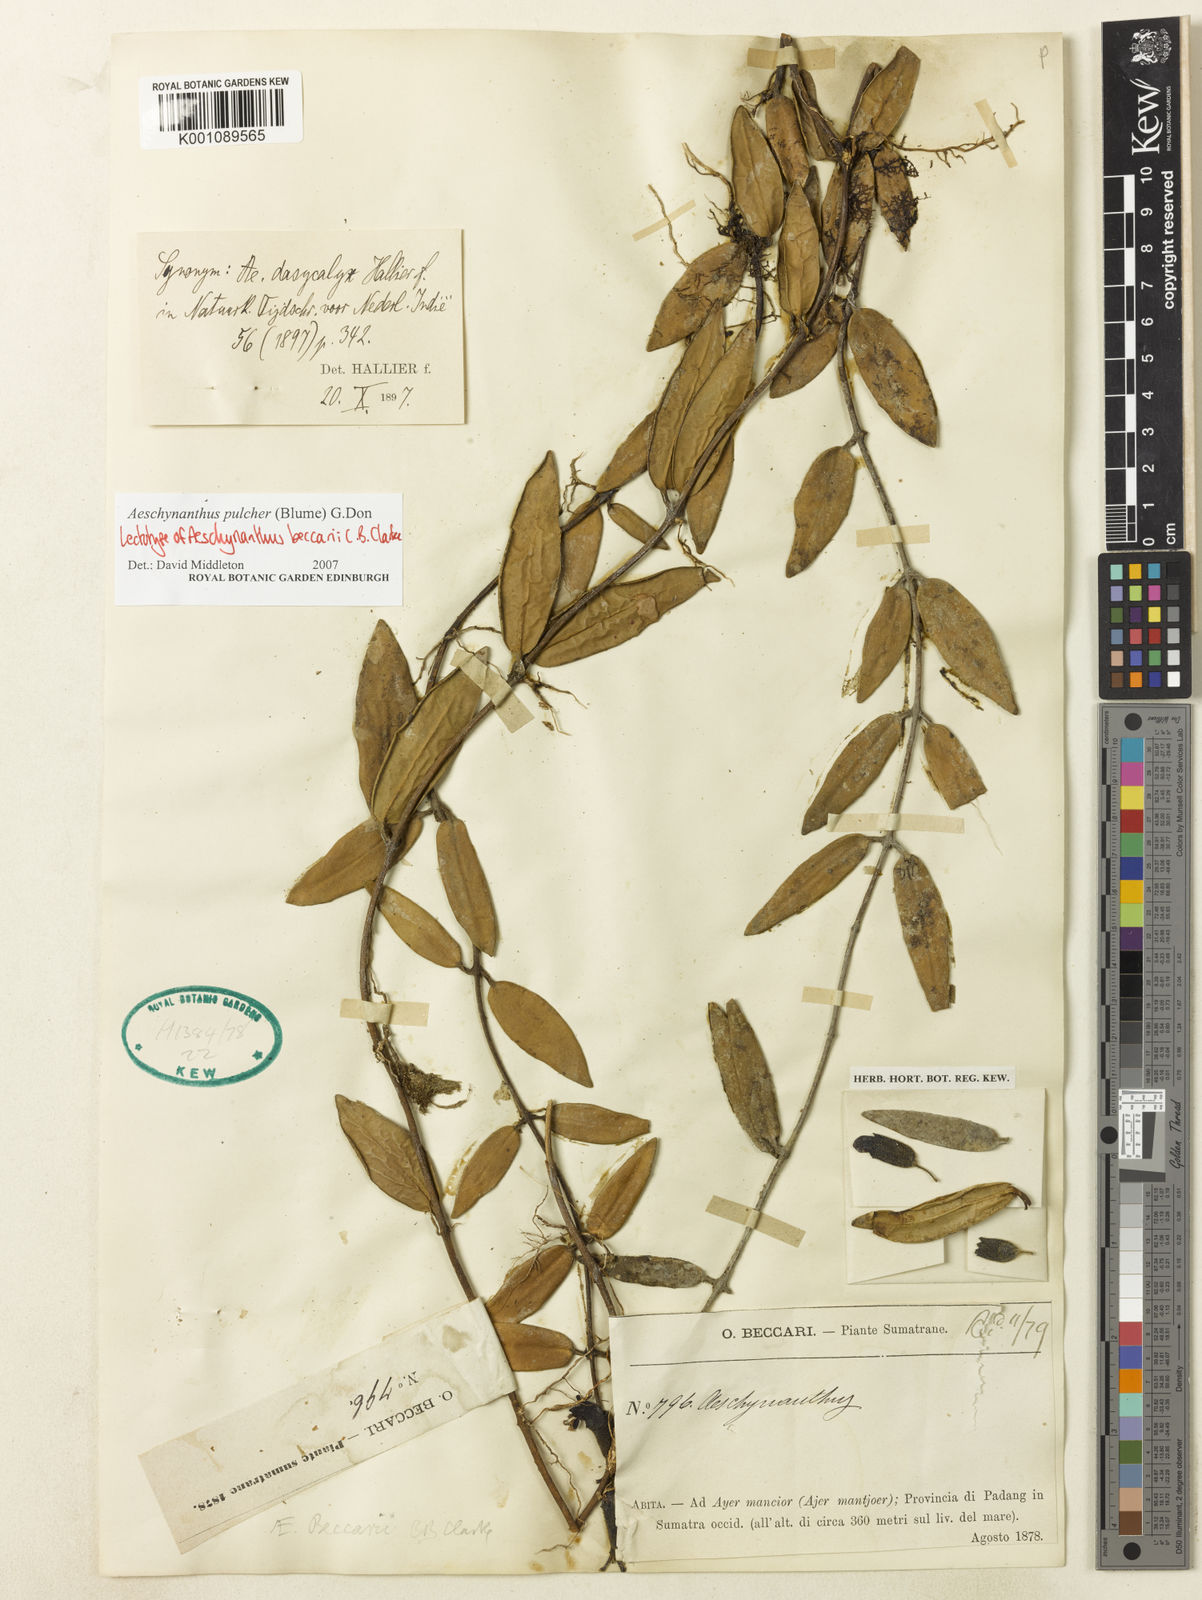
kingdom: Plantae
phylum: Tracheophyta
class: Magnoliopsida
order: Lamiales
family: Gesneriaceae
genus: Aeschynanthus
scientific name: Aeschynanthus pulcher
